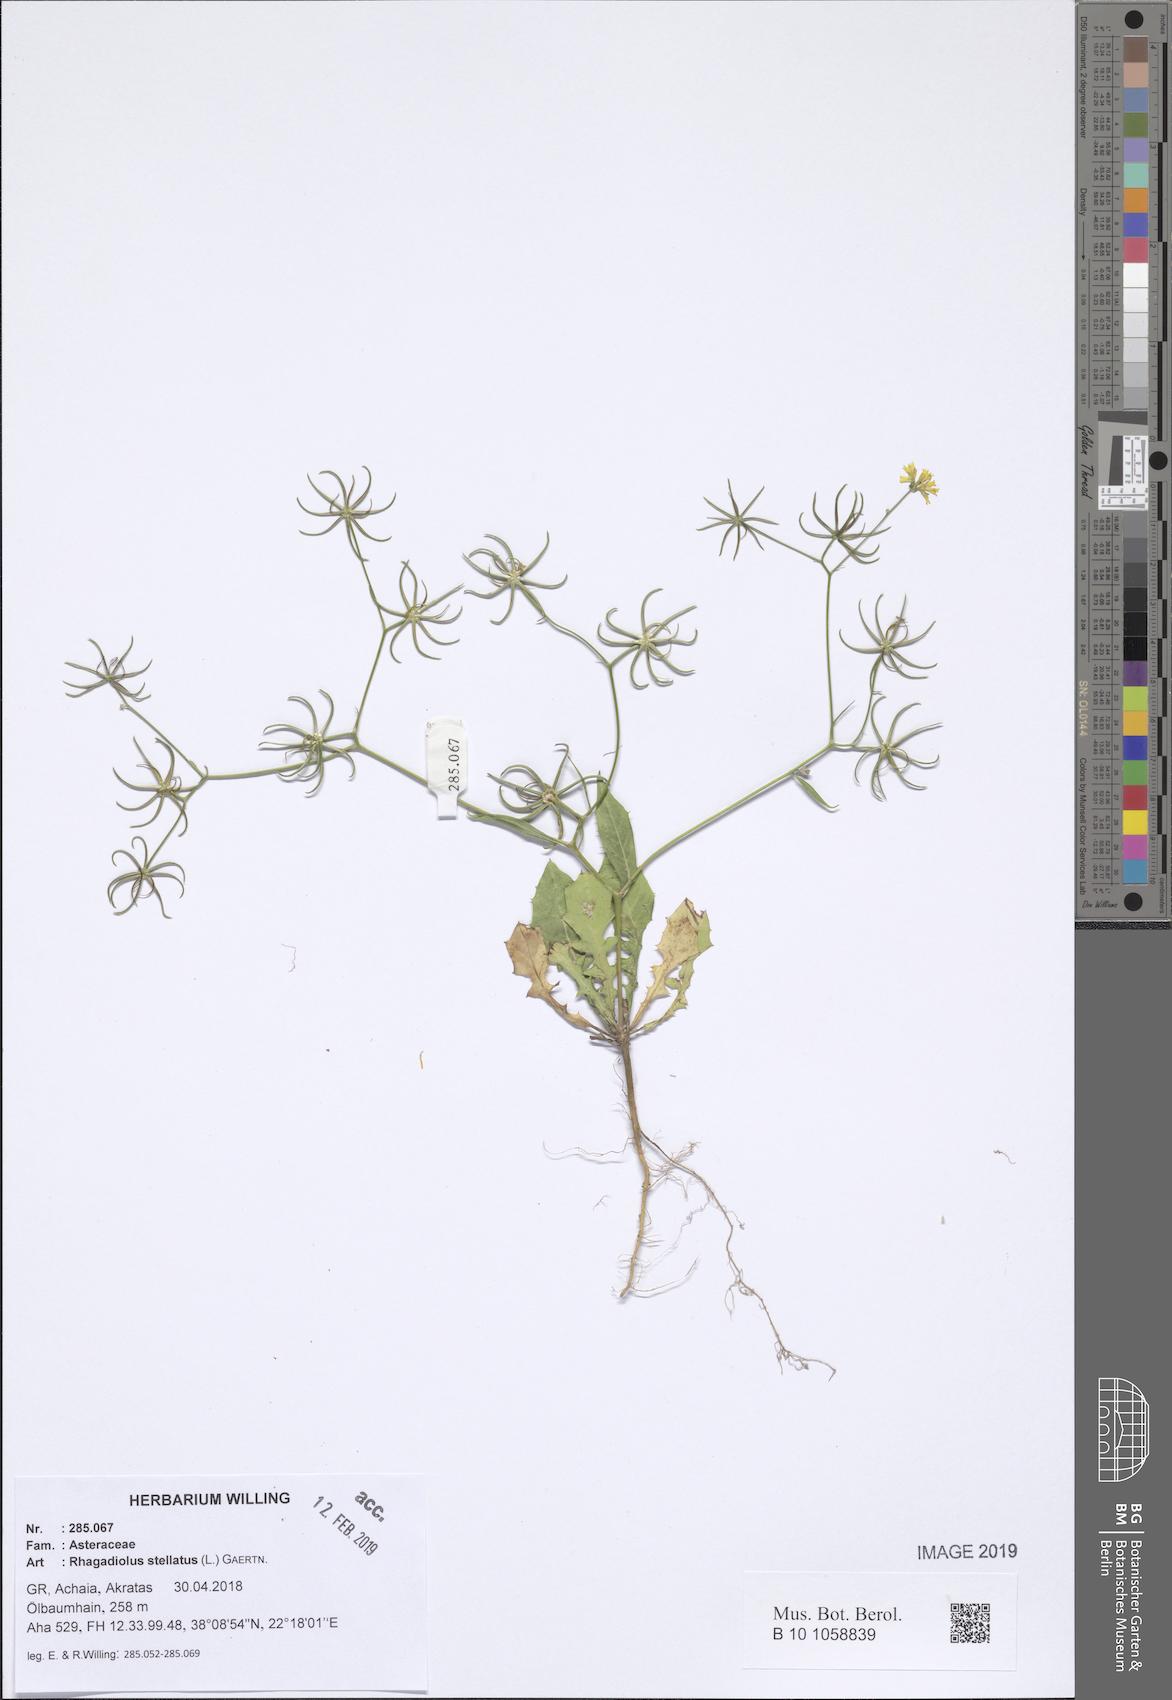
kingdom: Plantae
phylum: Tracheophyta
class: Magnoliopsida
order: Asterales
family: Asteraceae
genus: Rhagadiolus
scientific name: Rhagadiolus stellatus
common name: Star hawkbit
